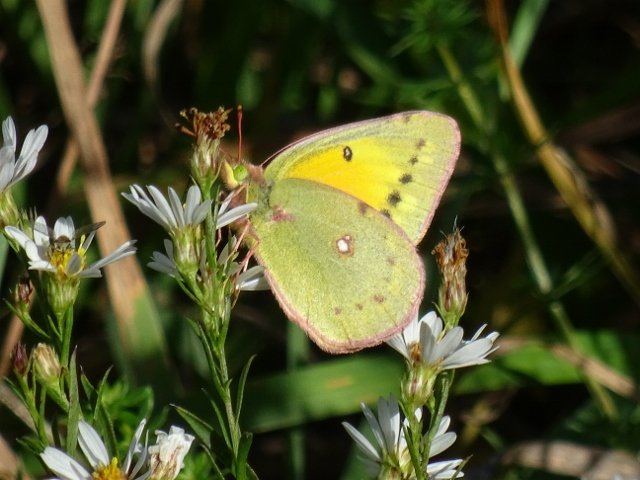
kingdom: Animalia
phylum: Arthropoda
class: Insecta
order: Lepidoptera
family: Pieridae
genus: Colias
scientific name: Colias eurytheme
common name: Orange Sulphur
